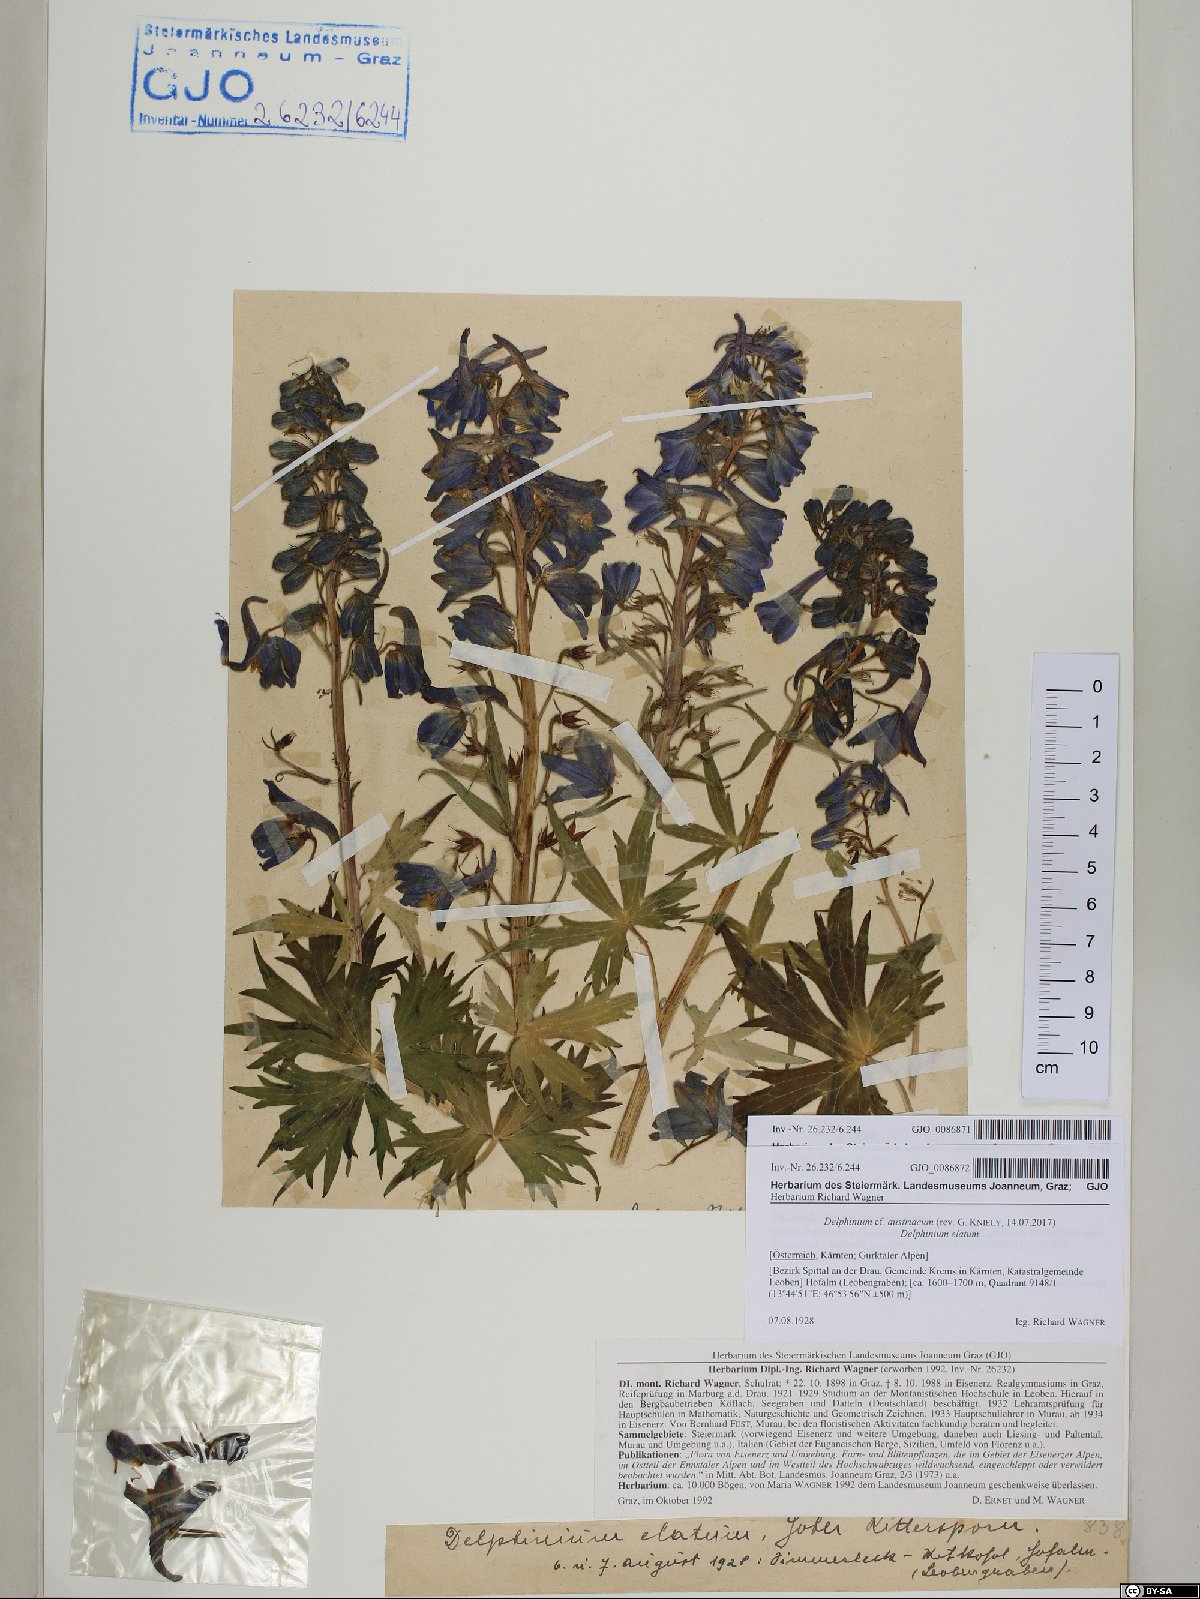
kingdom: Plantae
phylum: Tracheophyta
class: Magnoliopsida
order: Ranunculales
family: Ranunculaceae
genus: Delphinium
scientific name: Delphinium austriacum
